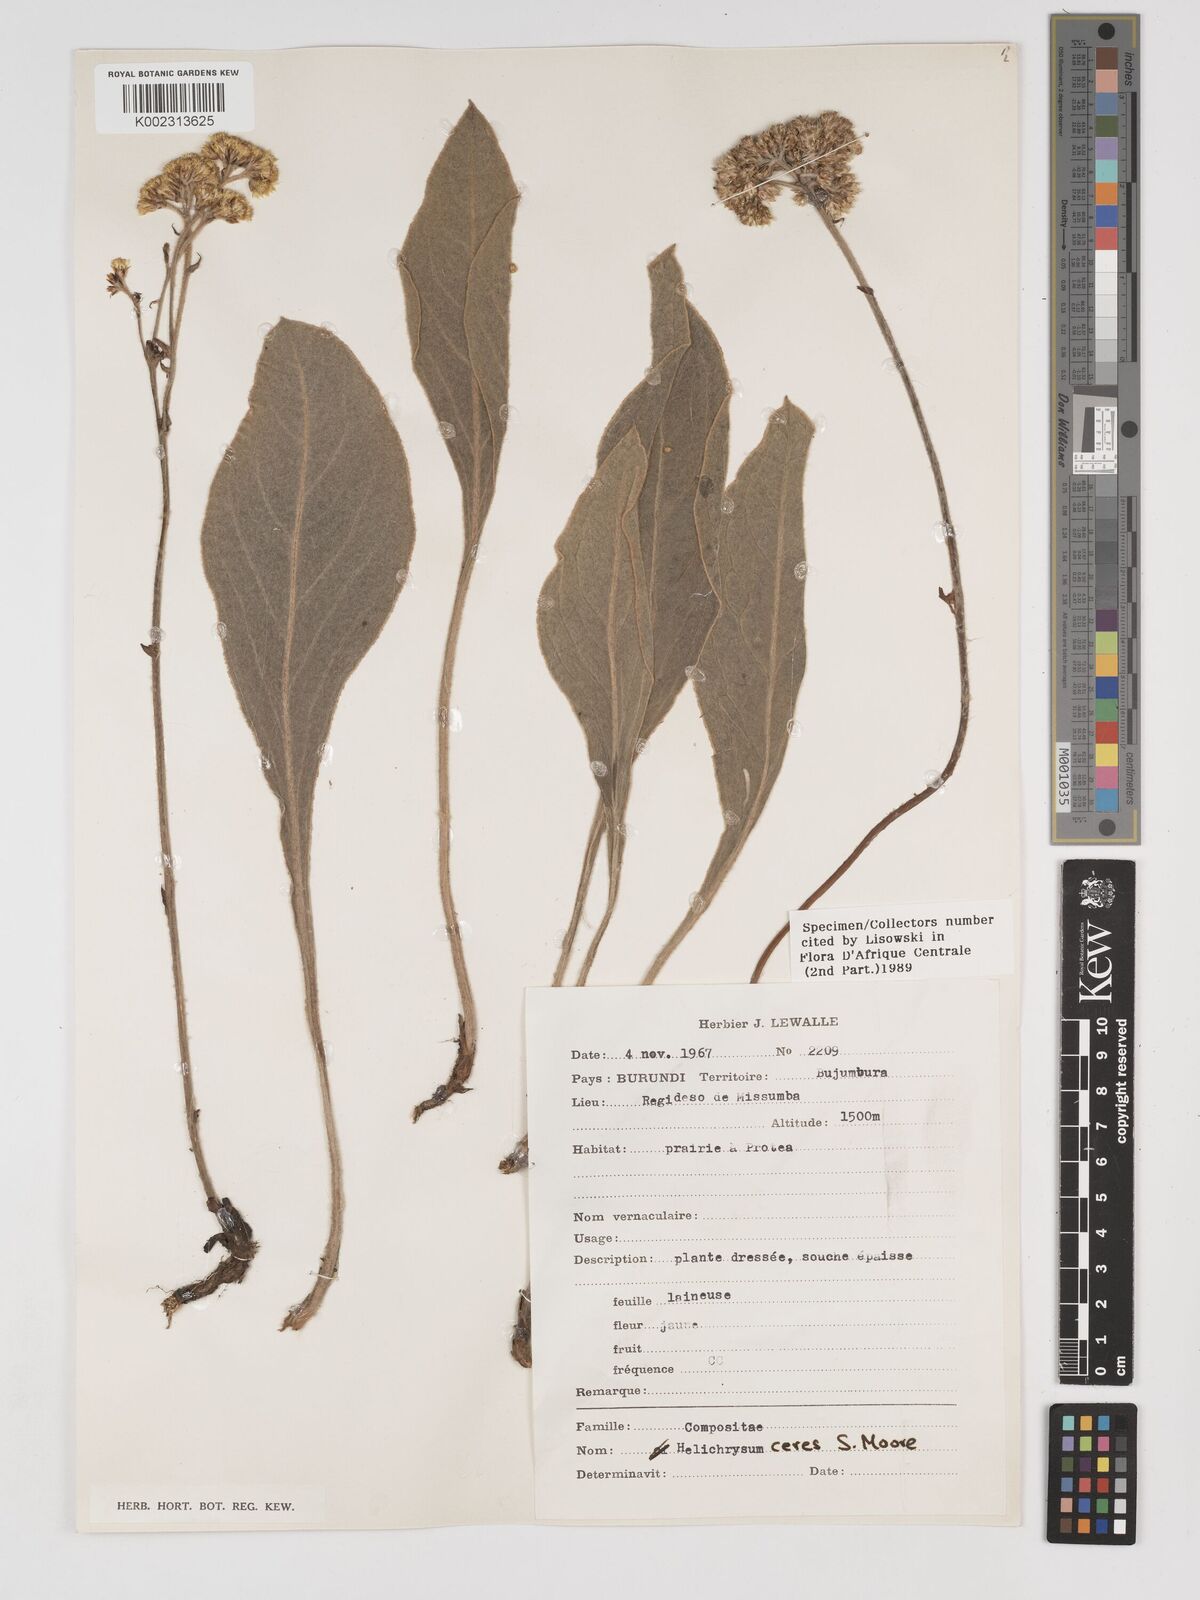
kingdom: Plantae
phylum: Tracheophyta
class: Magnoliopsida
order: Asterales
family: Asteraceae
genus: Helichrysum
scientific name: Helichrysum mechowianum
